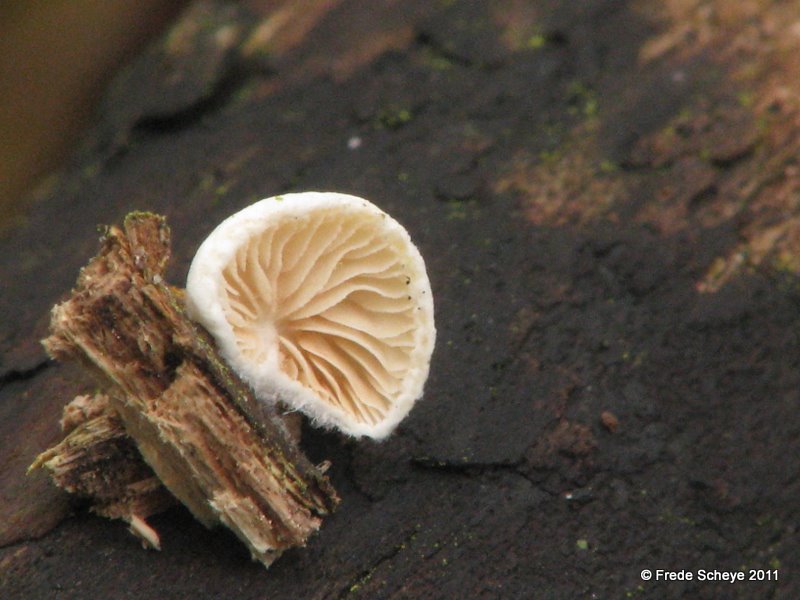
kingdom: Fungi
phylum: Basidiomycota
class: Agaricomycetes
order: Agaricales
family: Crepidotaceae
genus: Crepidotus
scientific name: Crepidotus cesatii
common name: almindelig muslingesvamp
